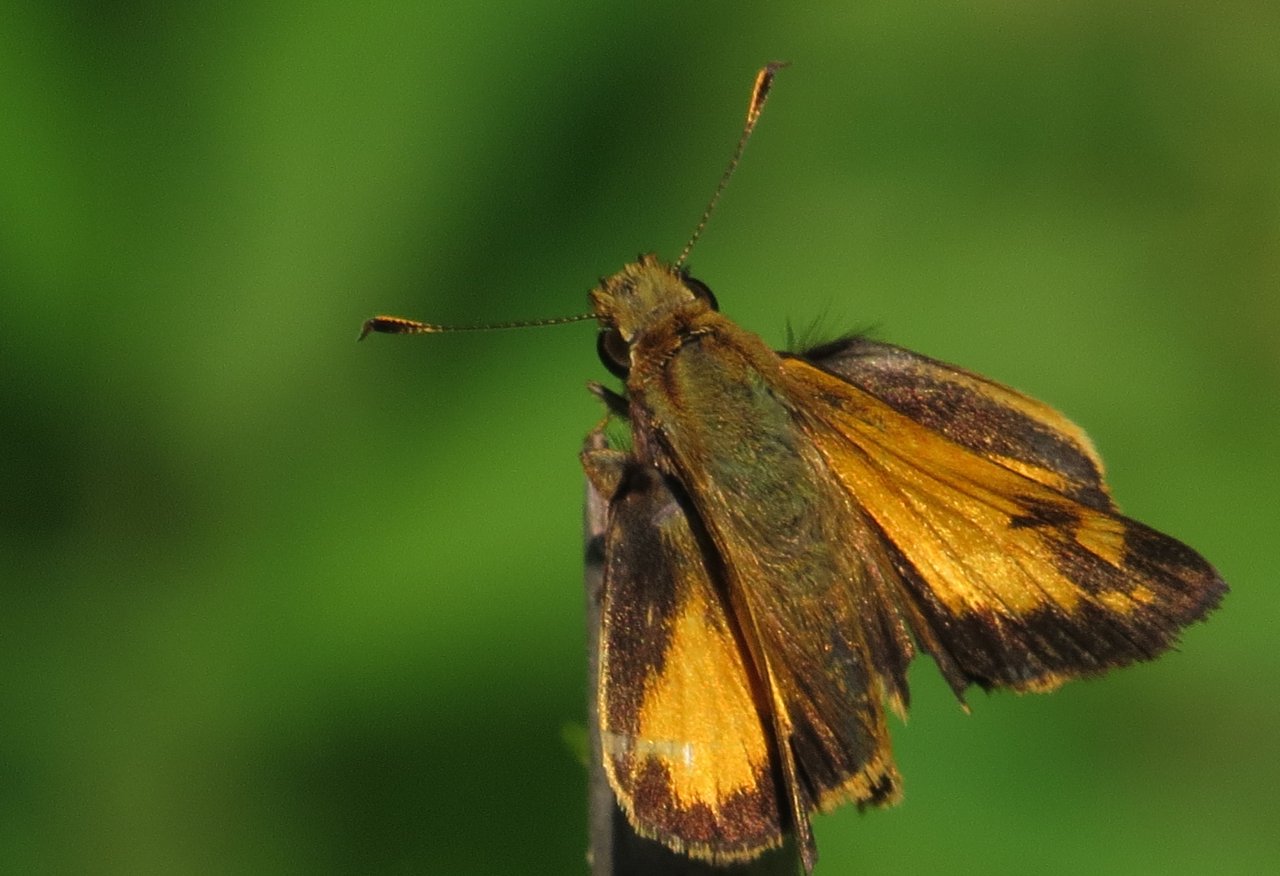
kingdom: Animalia
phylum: Arthropoda
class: Insecta
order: Lepidoptera
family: Hesperiidae
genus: Lon
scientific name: Lon zabulon
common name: Zabulon Skipper
